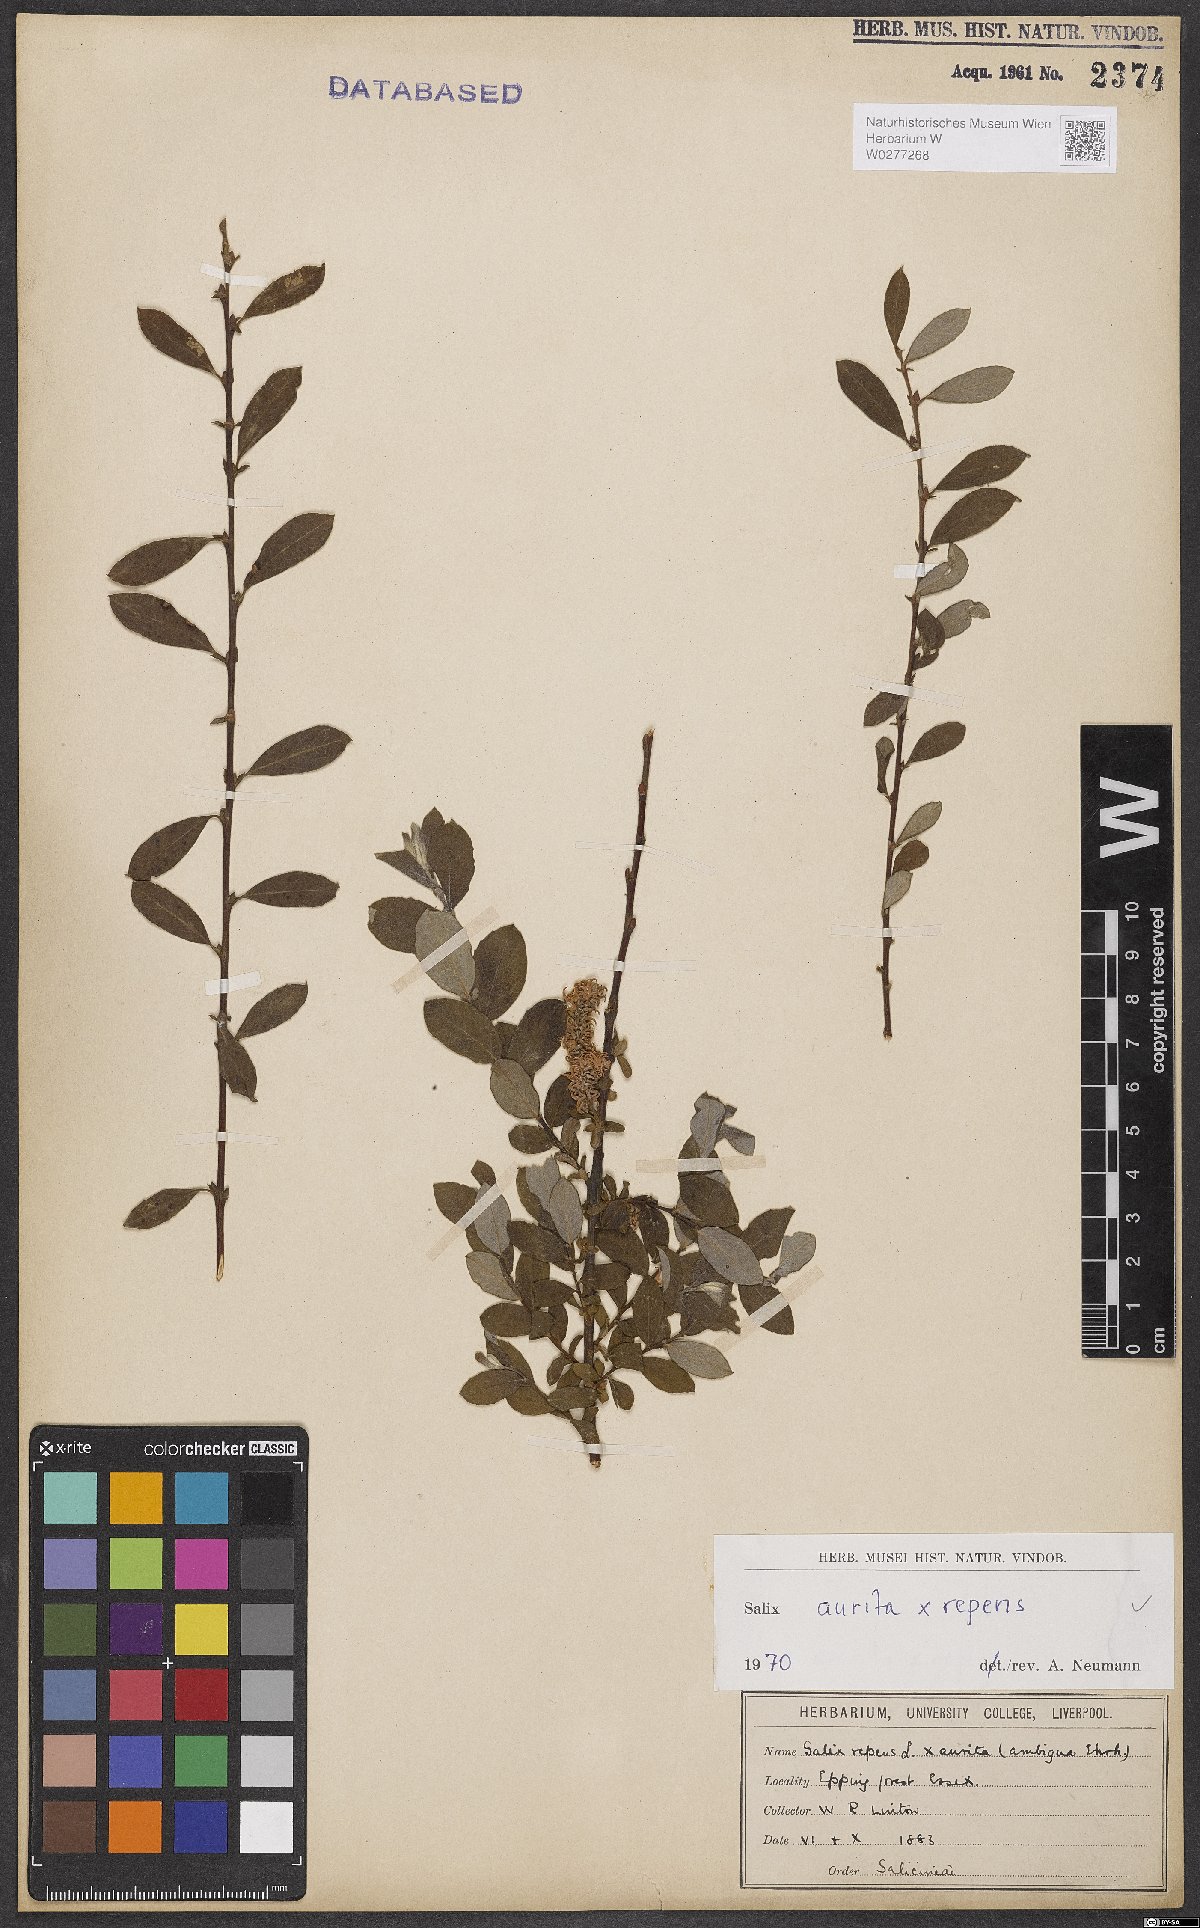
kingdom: Plantae
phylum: Tracheophyta
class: Magnoliopsida
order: Malpighiales
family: Salicaceae
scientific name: Salicaceae
